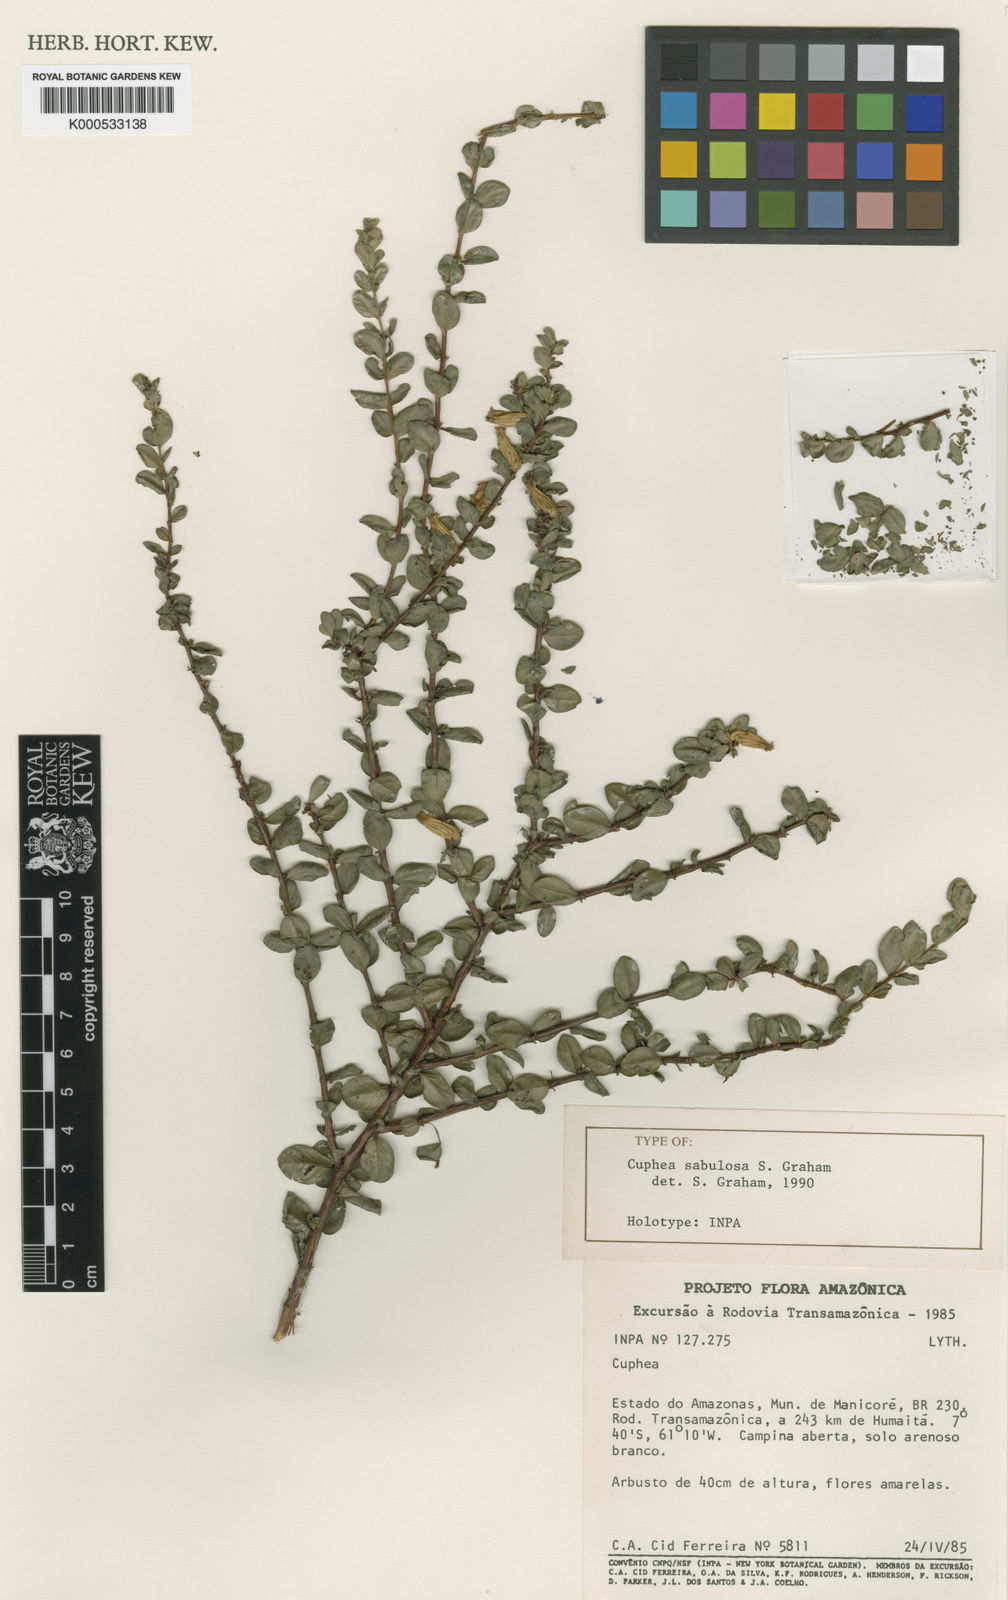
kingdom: Plantae
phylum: Tracheophyta
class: Magnoliopsida
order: Myrtales
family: Lythraceae
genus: Cuphea
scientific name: Cuphea sabulosa
